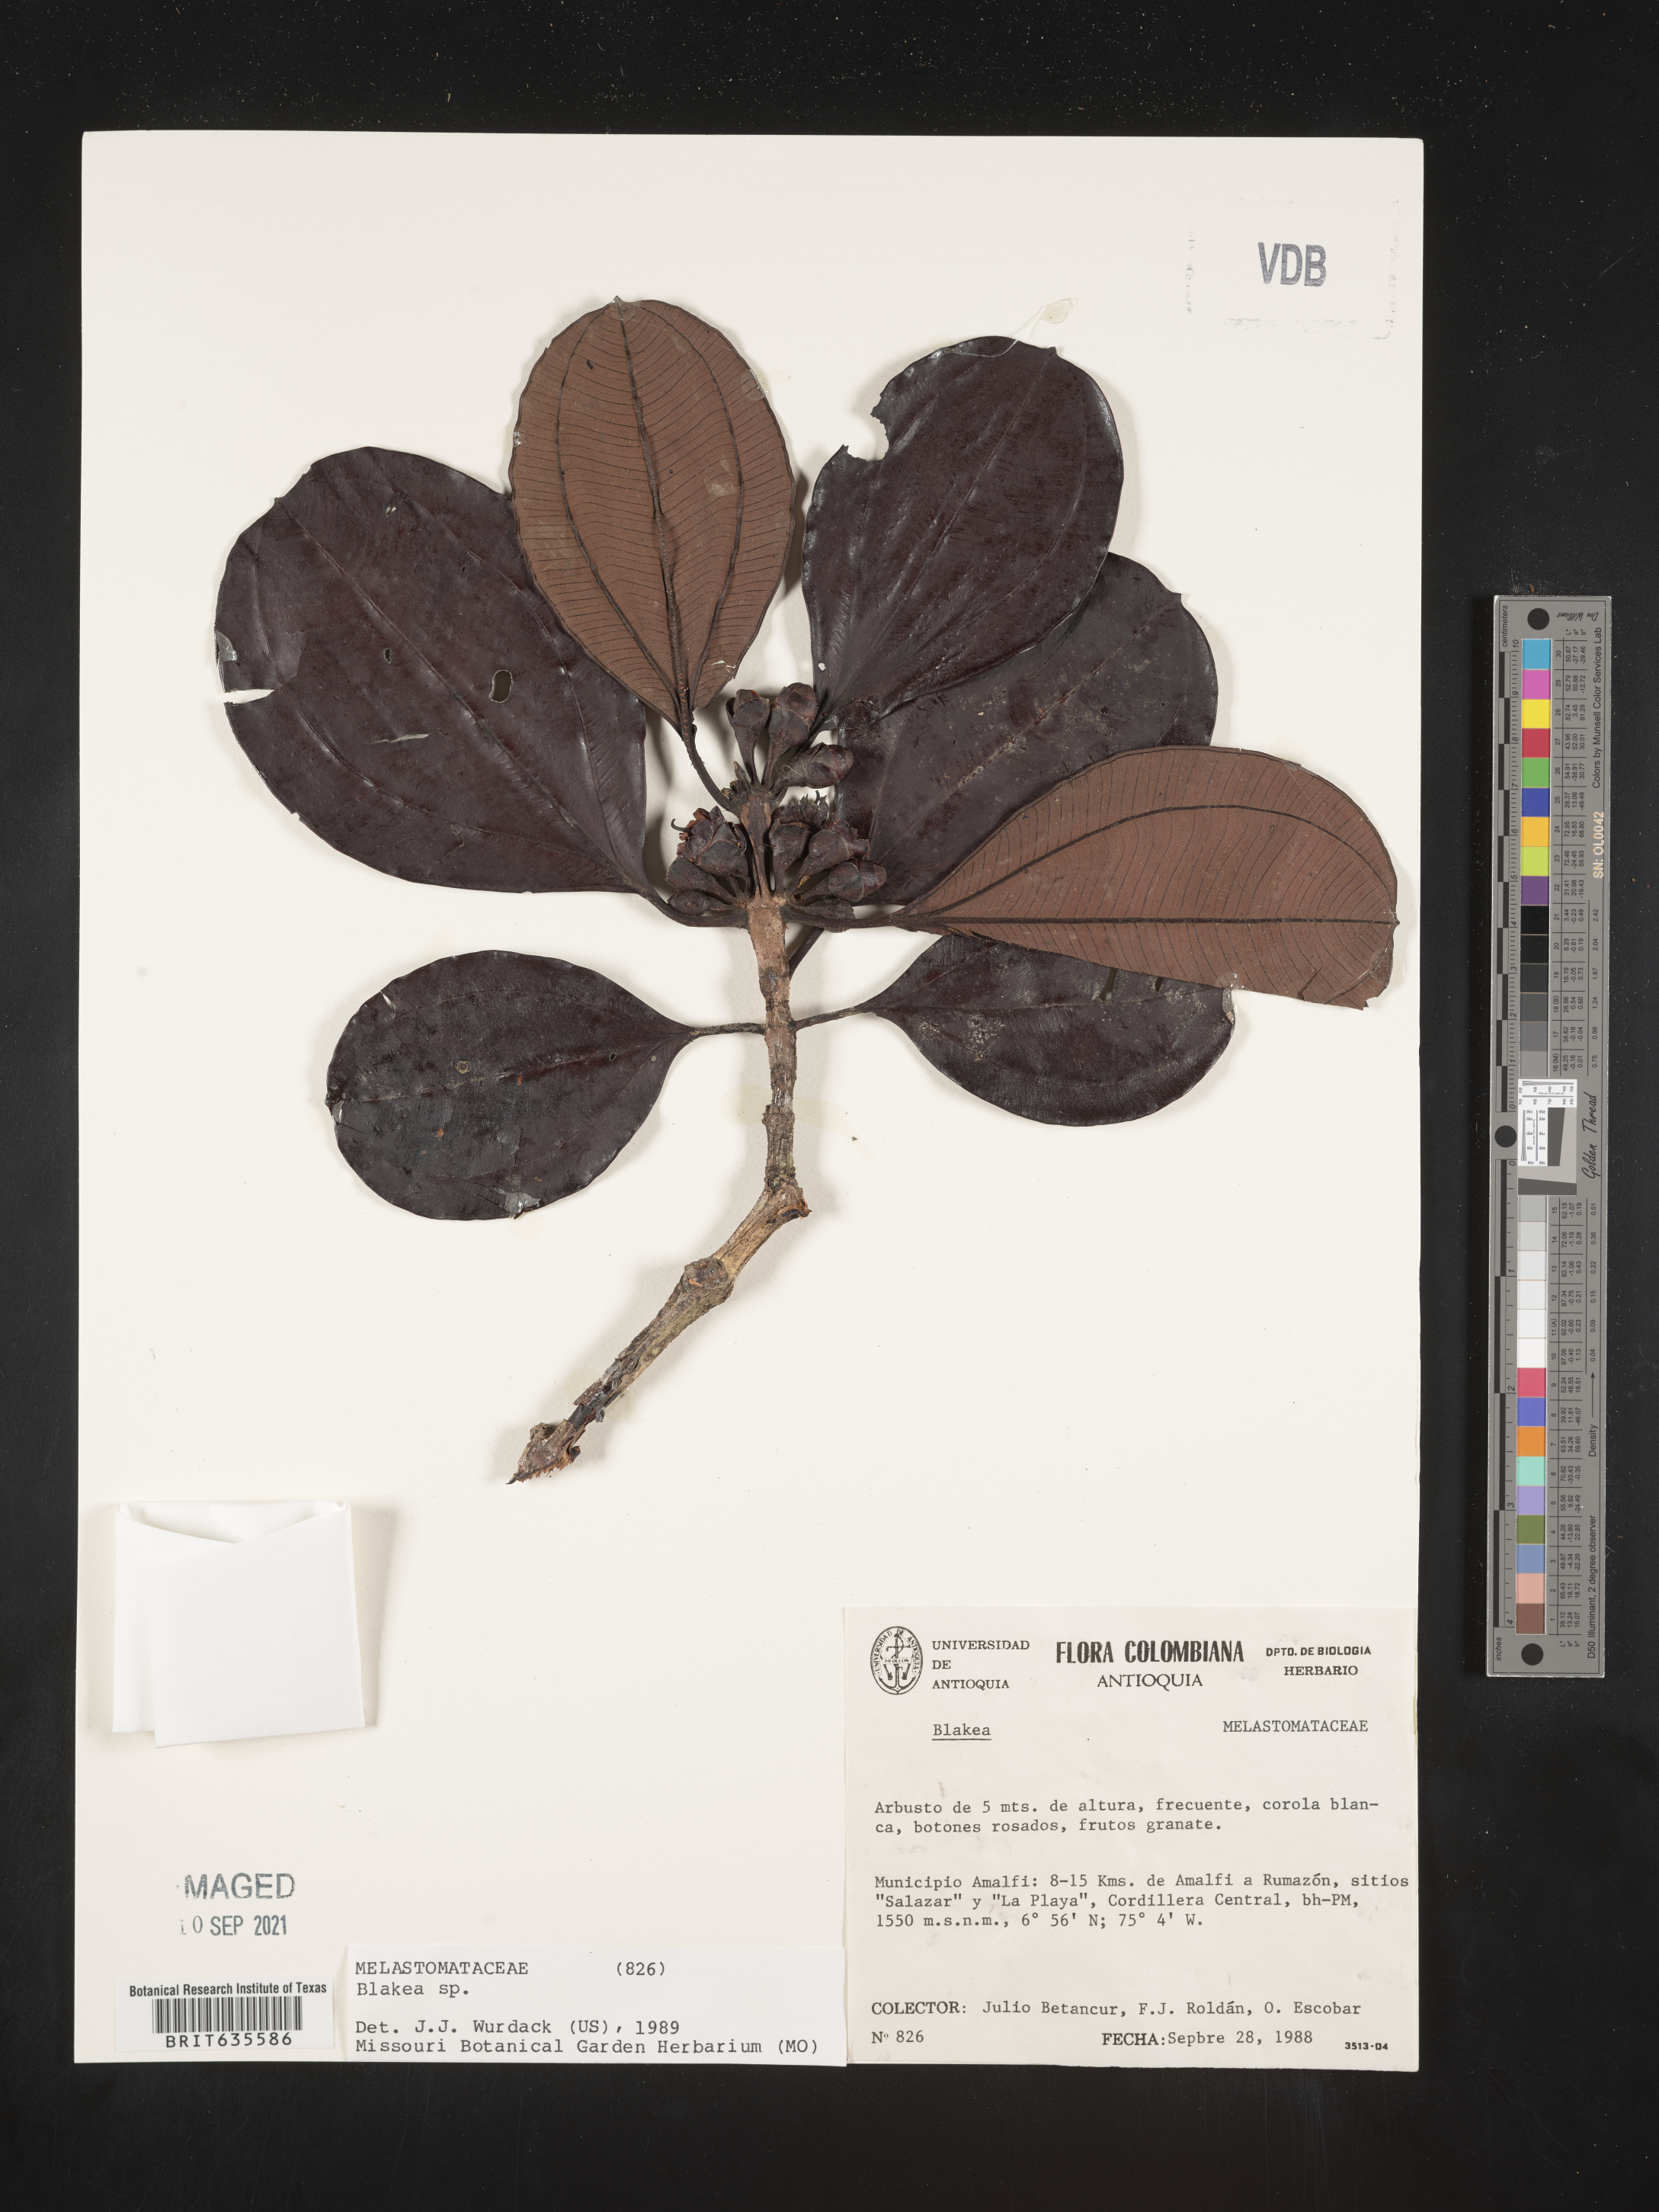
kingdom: Plantae
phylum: Tracheophyta
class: Magnoliopsida
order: Myrtales
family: Melastomataceae
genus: Blakea
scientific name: Blakea
